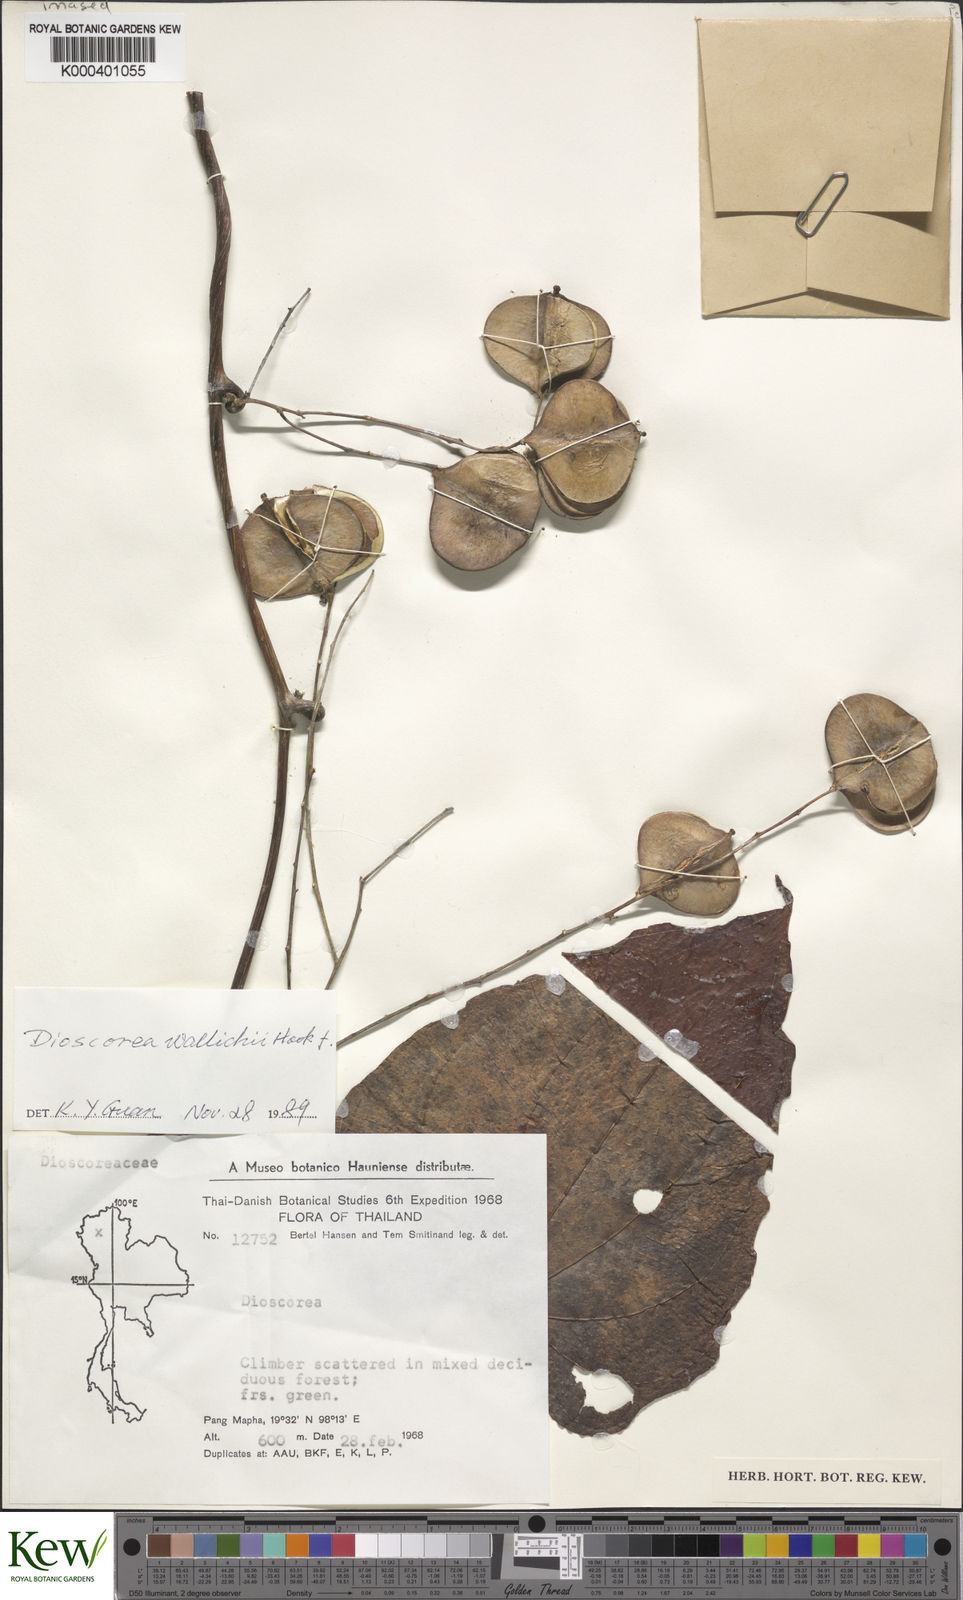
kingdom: Plantae
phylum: Tracheophyta
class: Liliopsida
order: Dioscoreales
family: Dioscoreaceae
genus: Dioscorea
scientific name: Dioscorea wallichii
